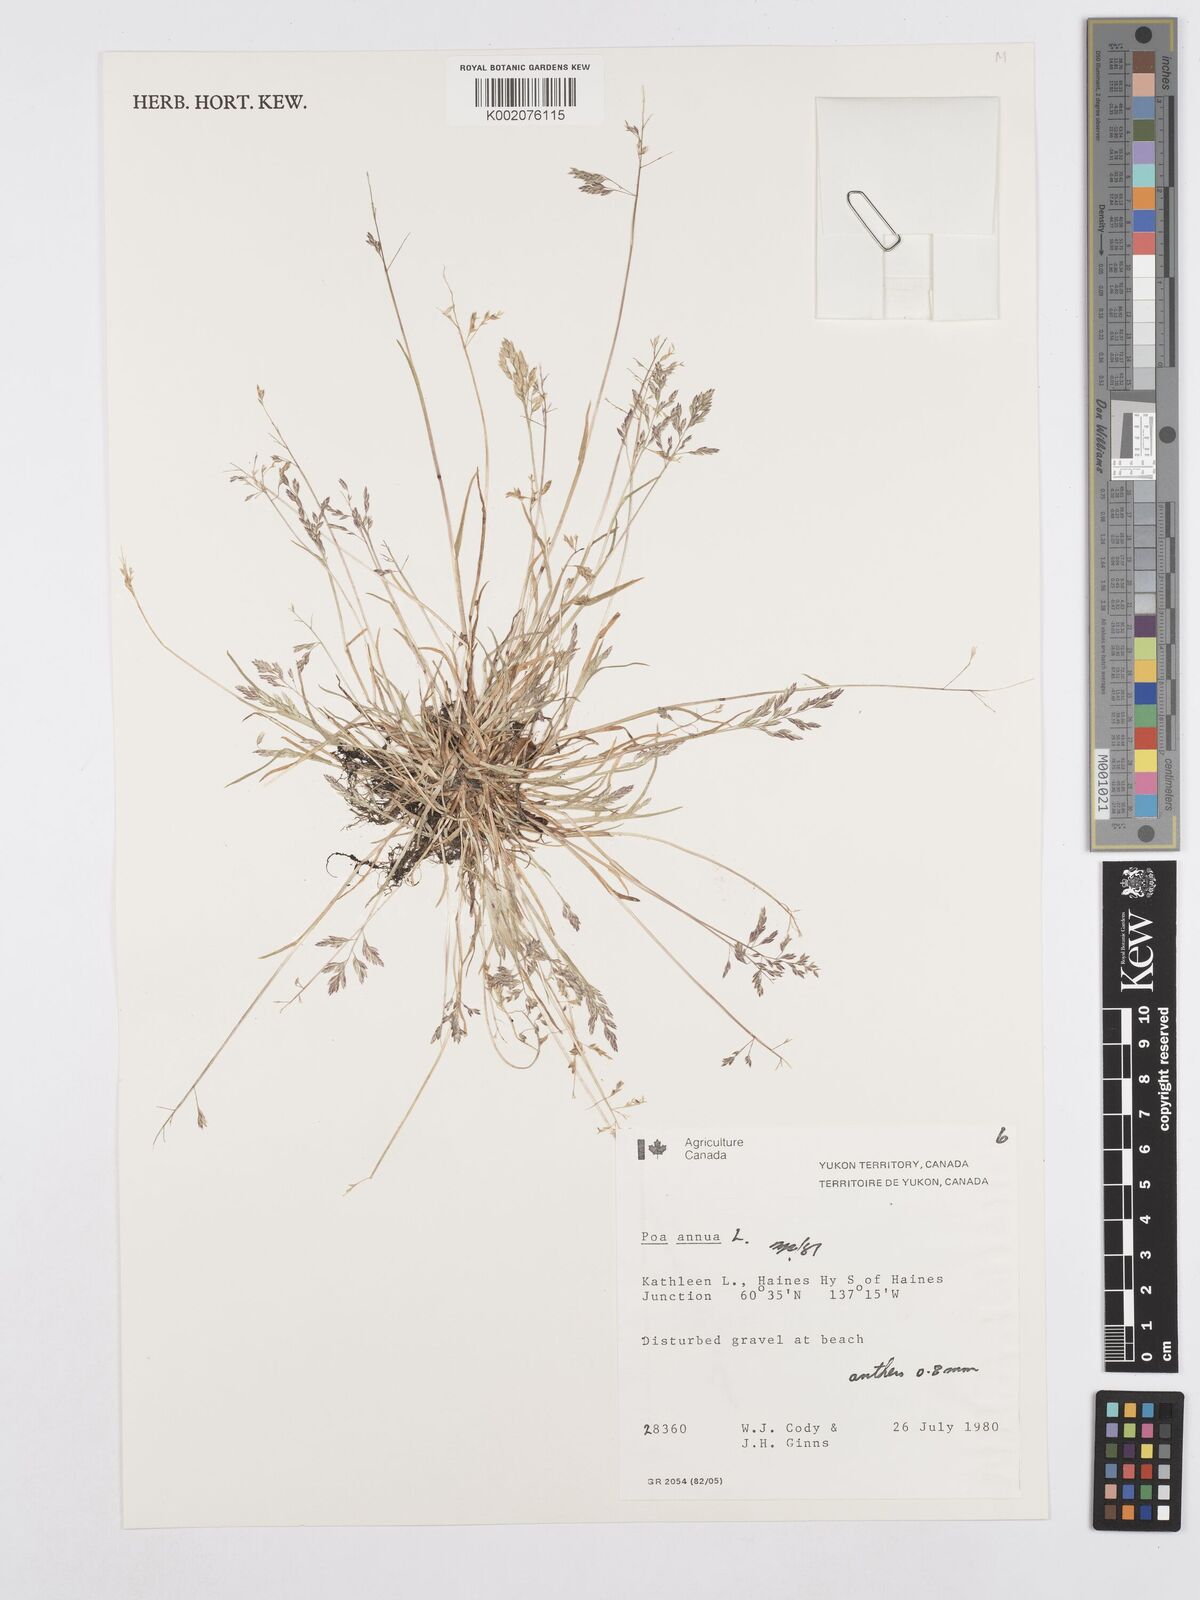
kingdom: Plantae
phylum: Tracheophyta
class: Liliopsida
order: Poales
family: Poaceae
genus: Poa
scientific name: Poa annua
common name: Annual bluegrass
